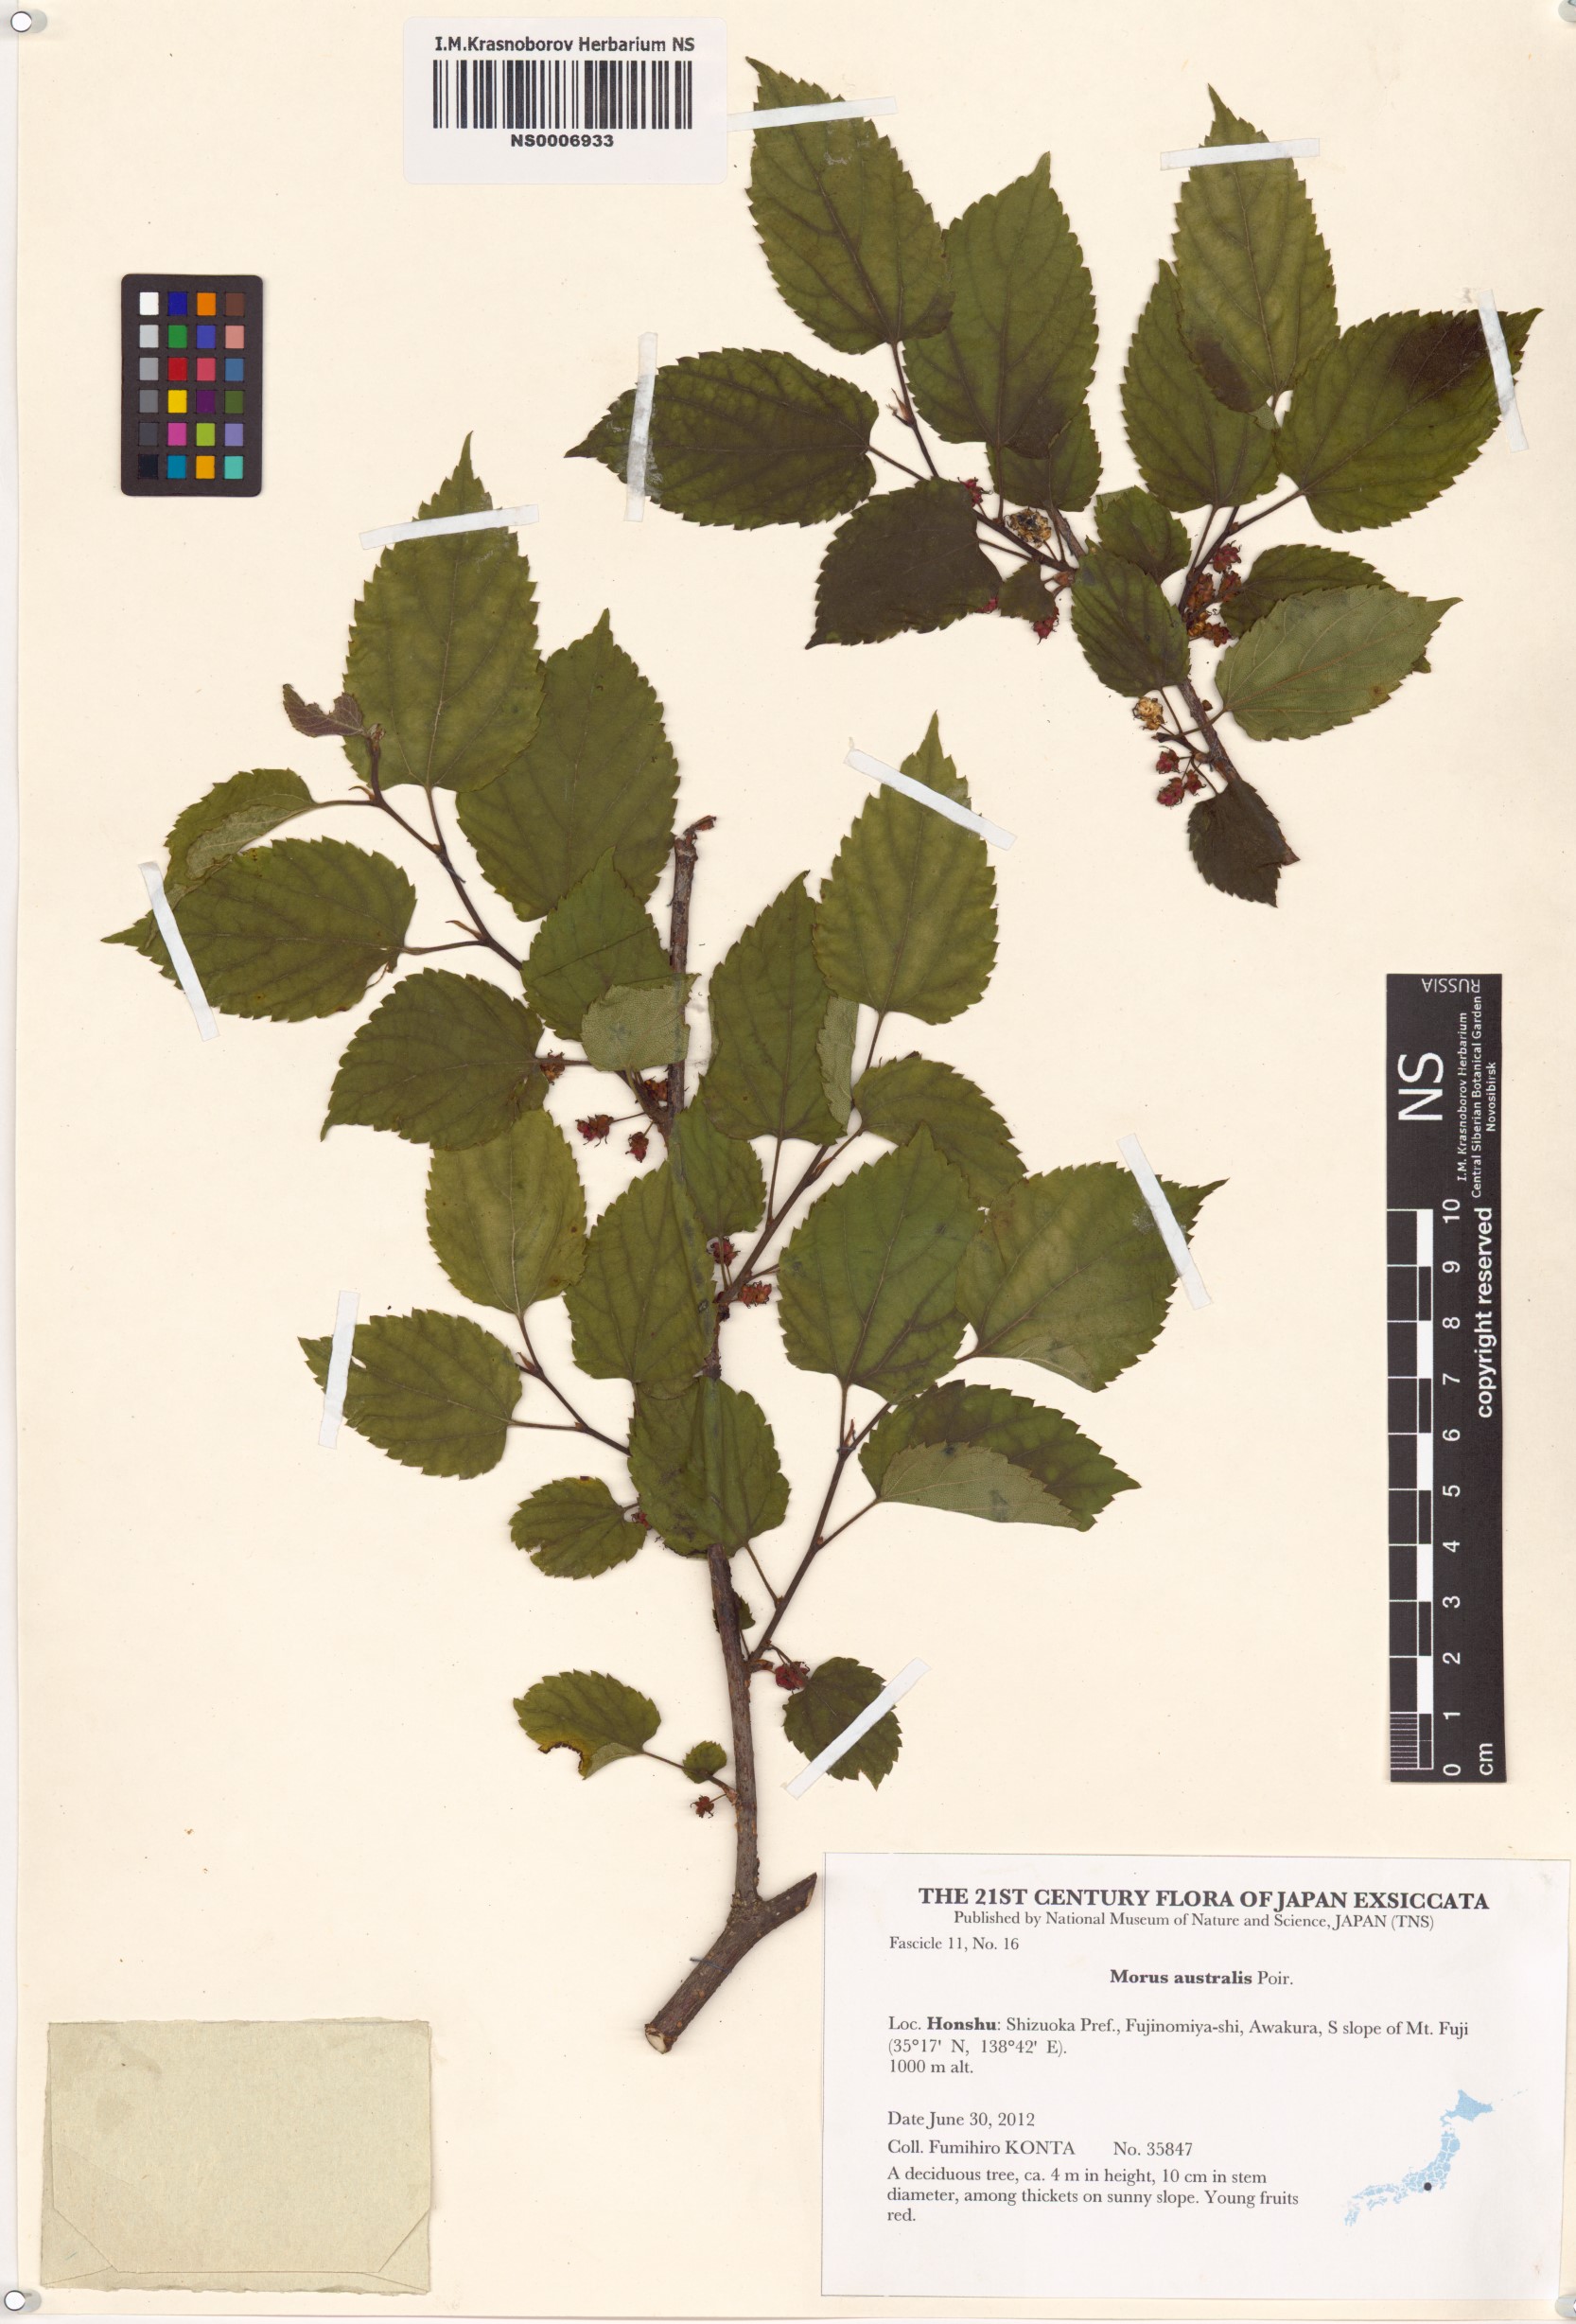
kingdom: Plantae
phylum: Tracheophyta
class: Magnoliopsida
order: Rosales
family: Moraceae
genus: Broussonetia
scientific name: Broussonetia papyrifera
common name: Paper mulberry
